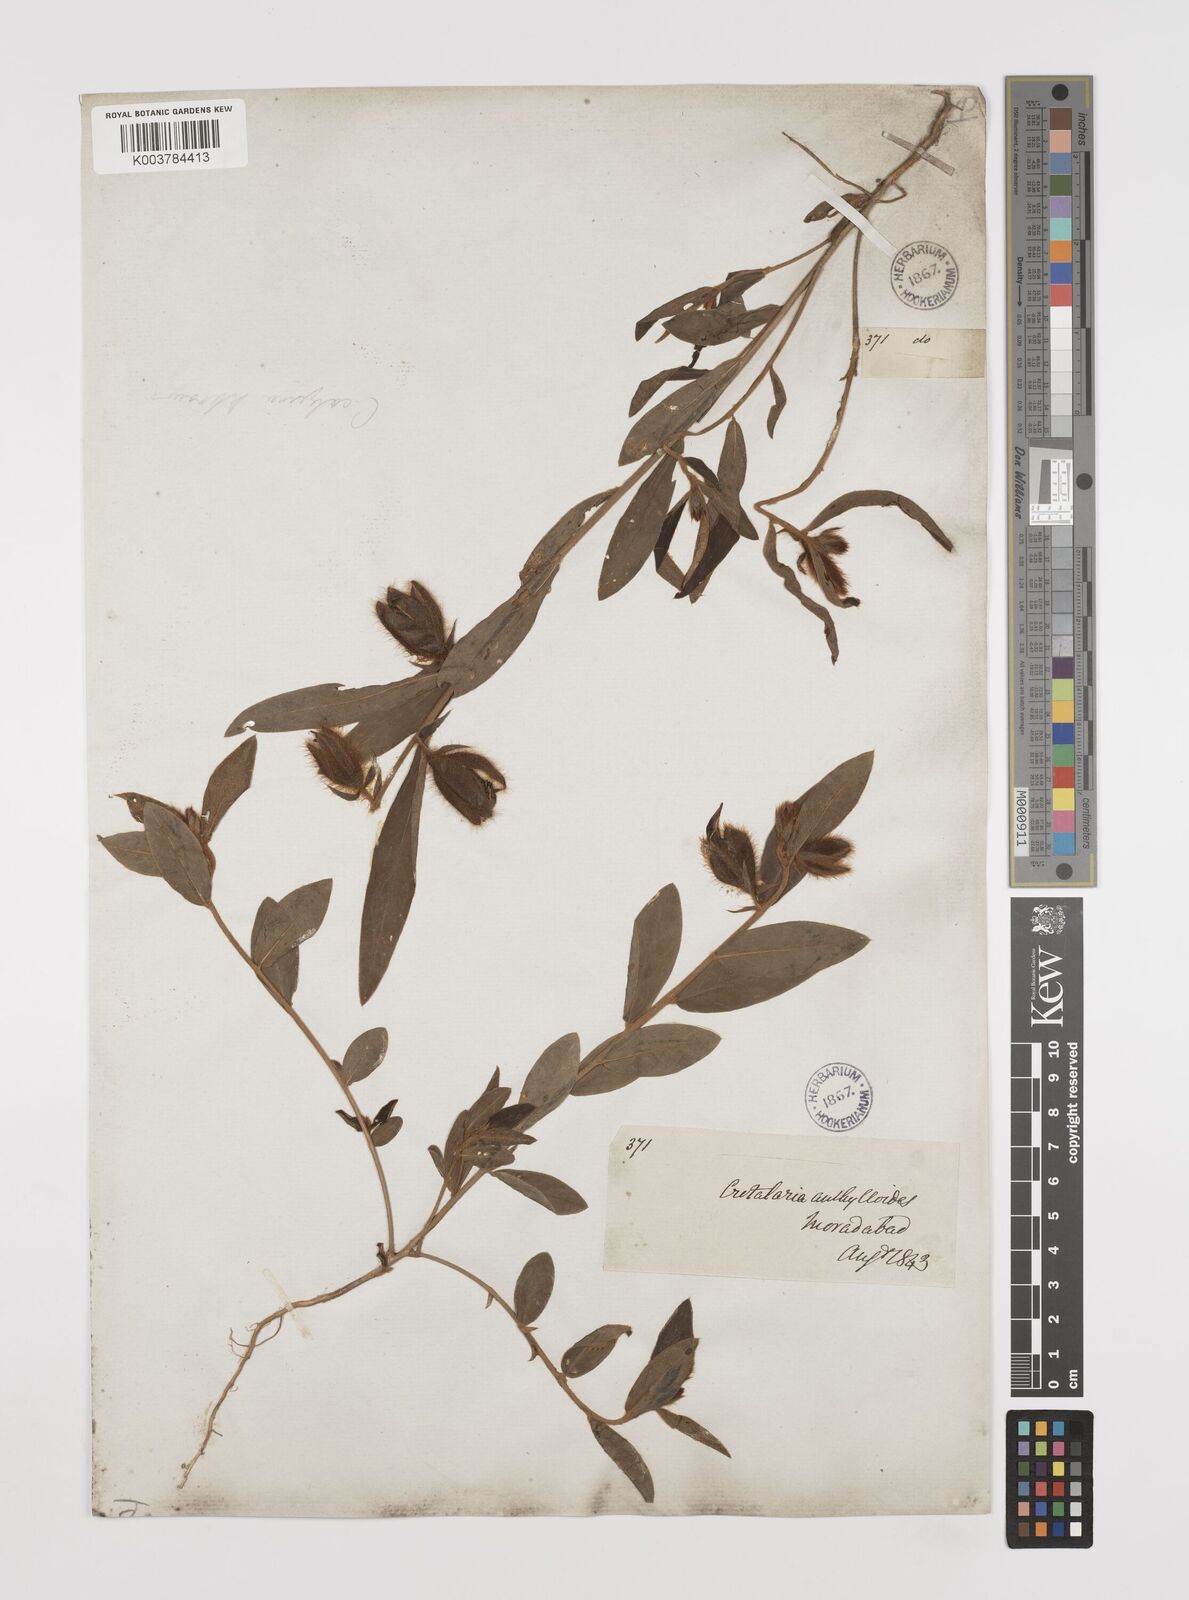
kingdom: Plantae
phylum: Tracheophyta
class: Magnoliopsida
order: Fabales
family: Fabaceae
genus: Crotalaria
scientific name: Crotalaria calycina
